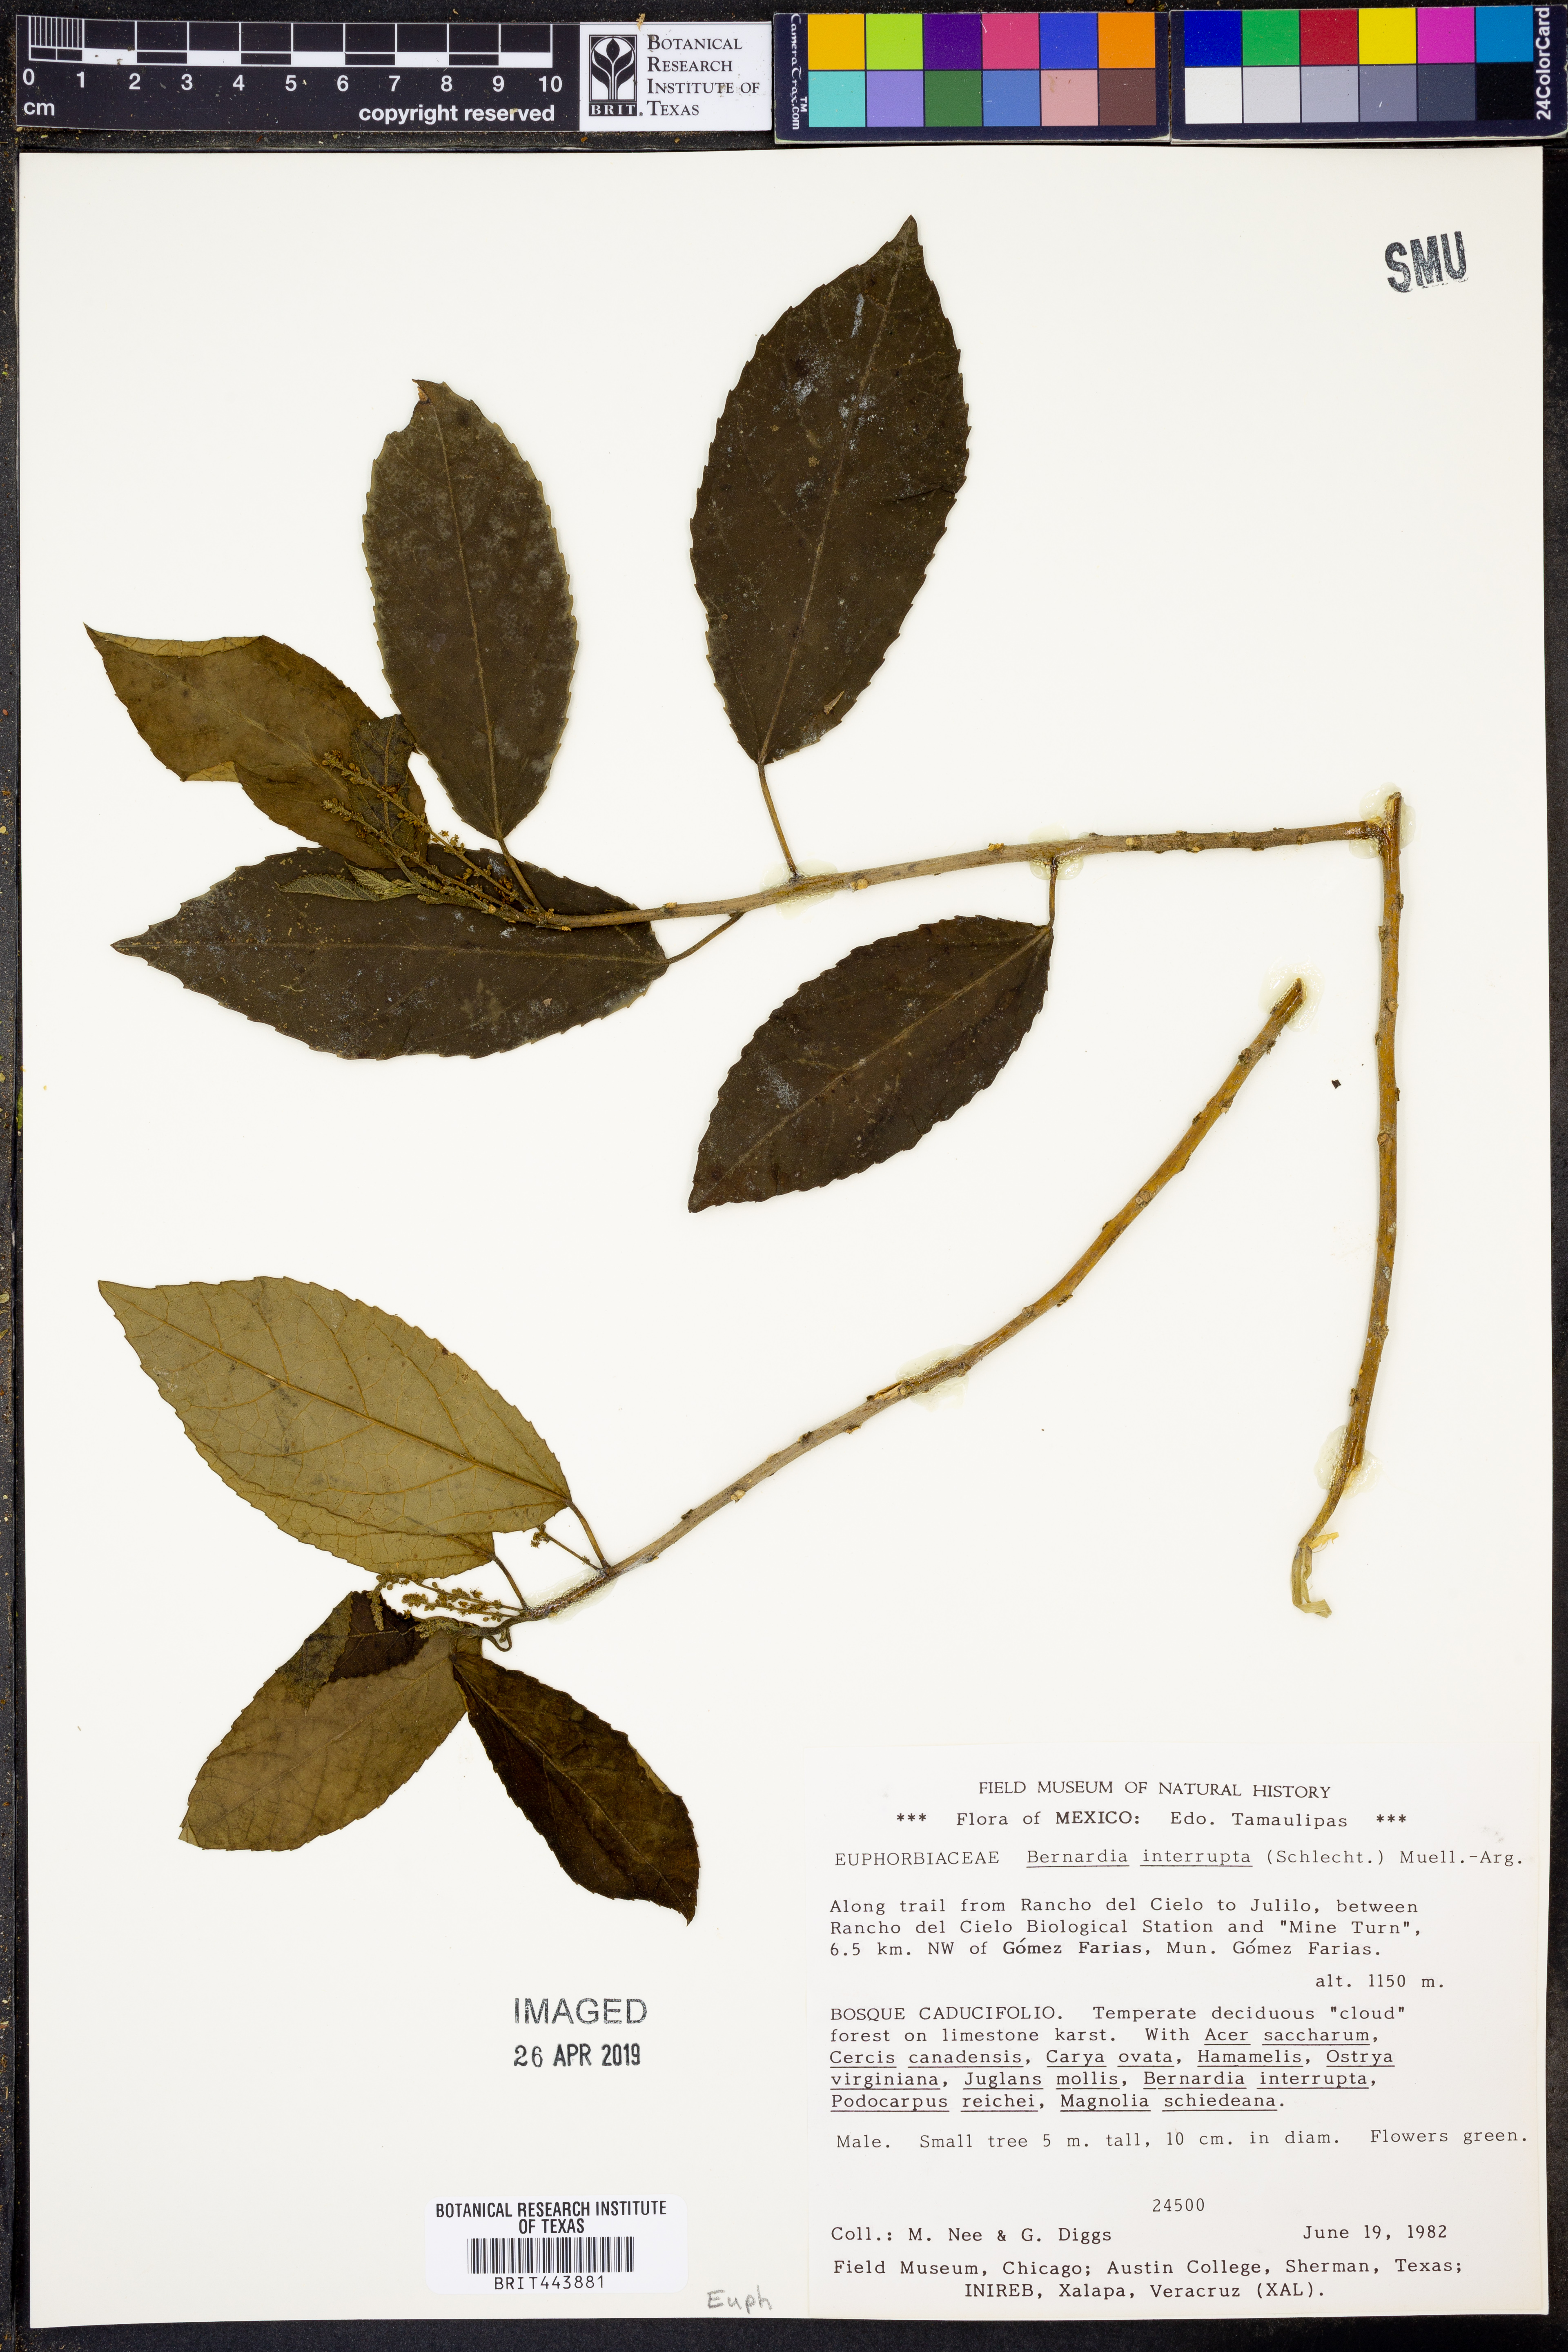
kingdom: Plantae
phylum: Tracheophyta
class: Magnoliopsida
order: Malpighiales
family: Euphorbiaceae
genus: Bernardia
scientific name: Bernardia dodecandra
